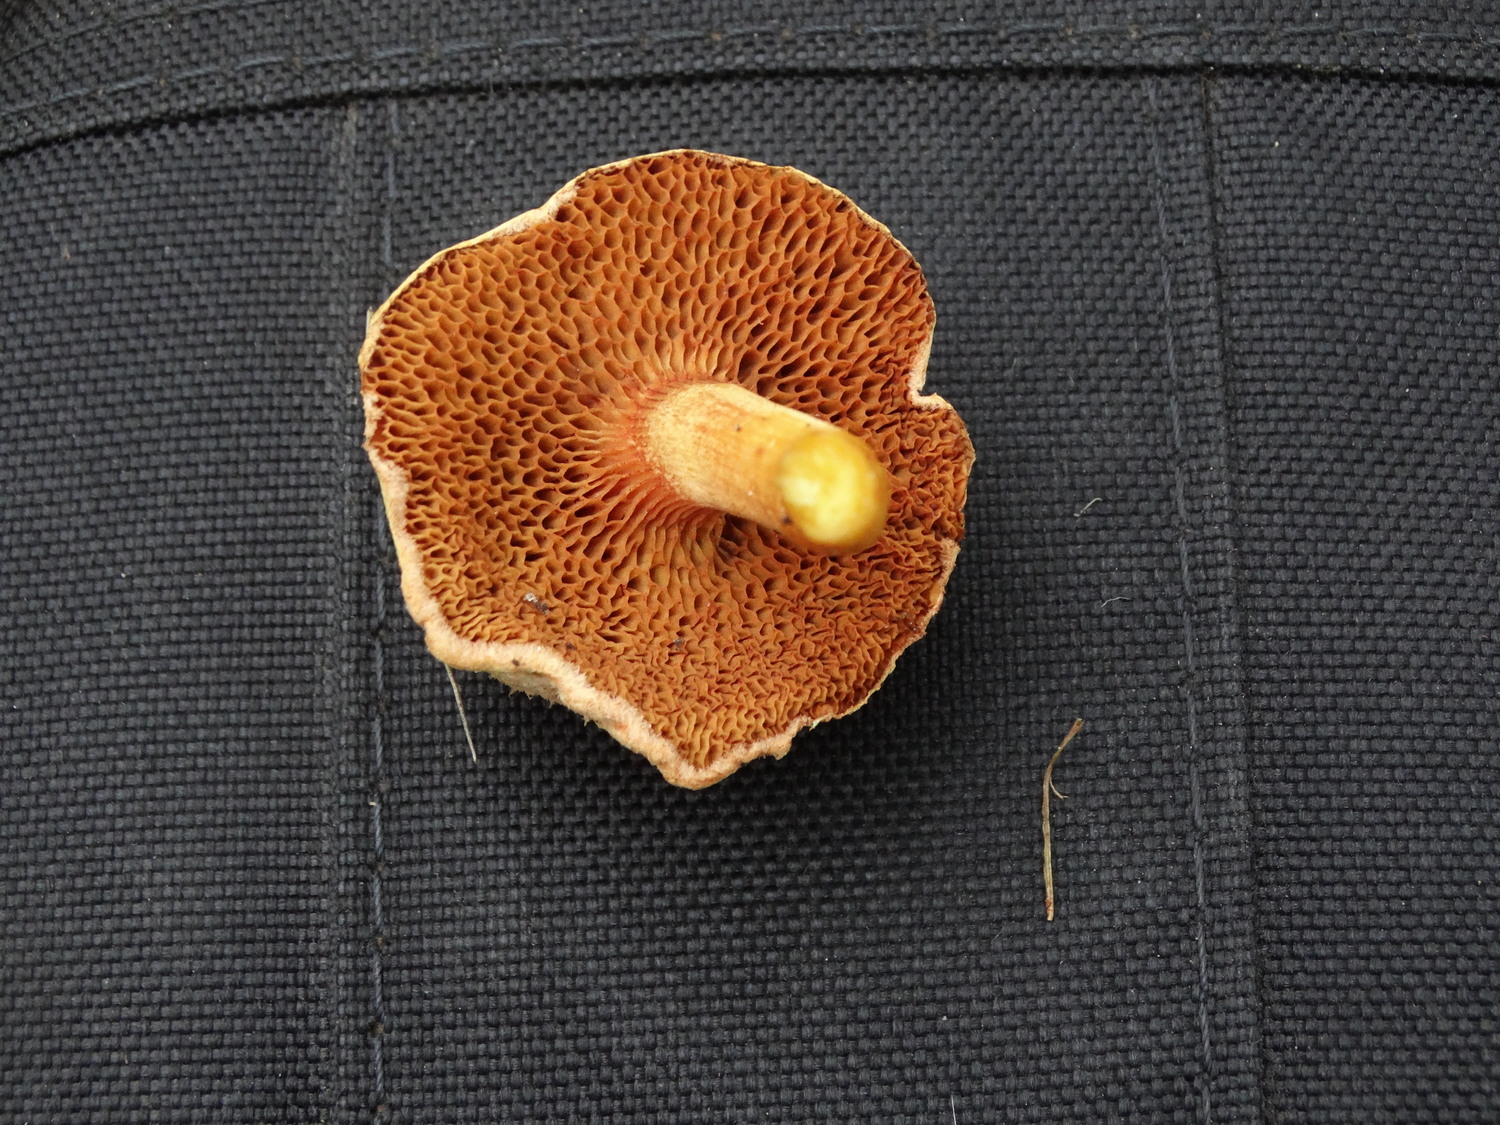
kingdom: Fungi
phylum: Basidiomycota
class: Agaricomycetes
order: Boletales
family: Boletaceae
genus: Chalciporus
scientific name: Chalciporus piperatus
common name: peberrørhat
